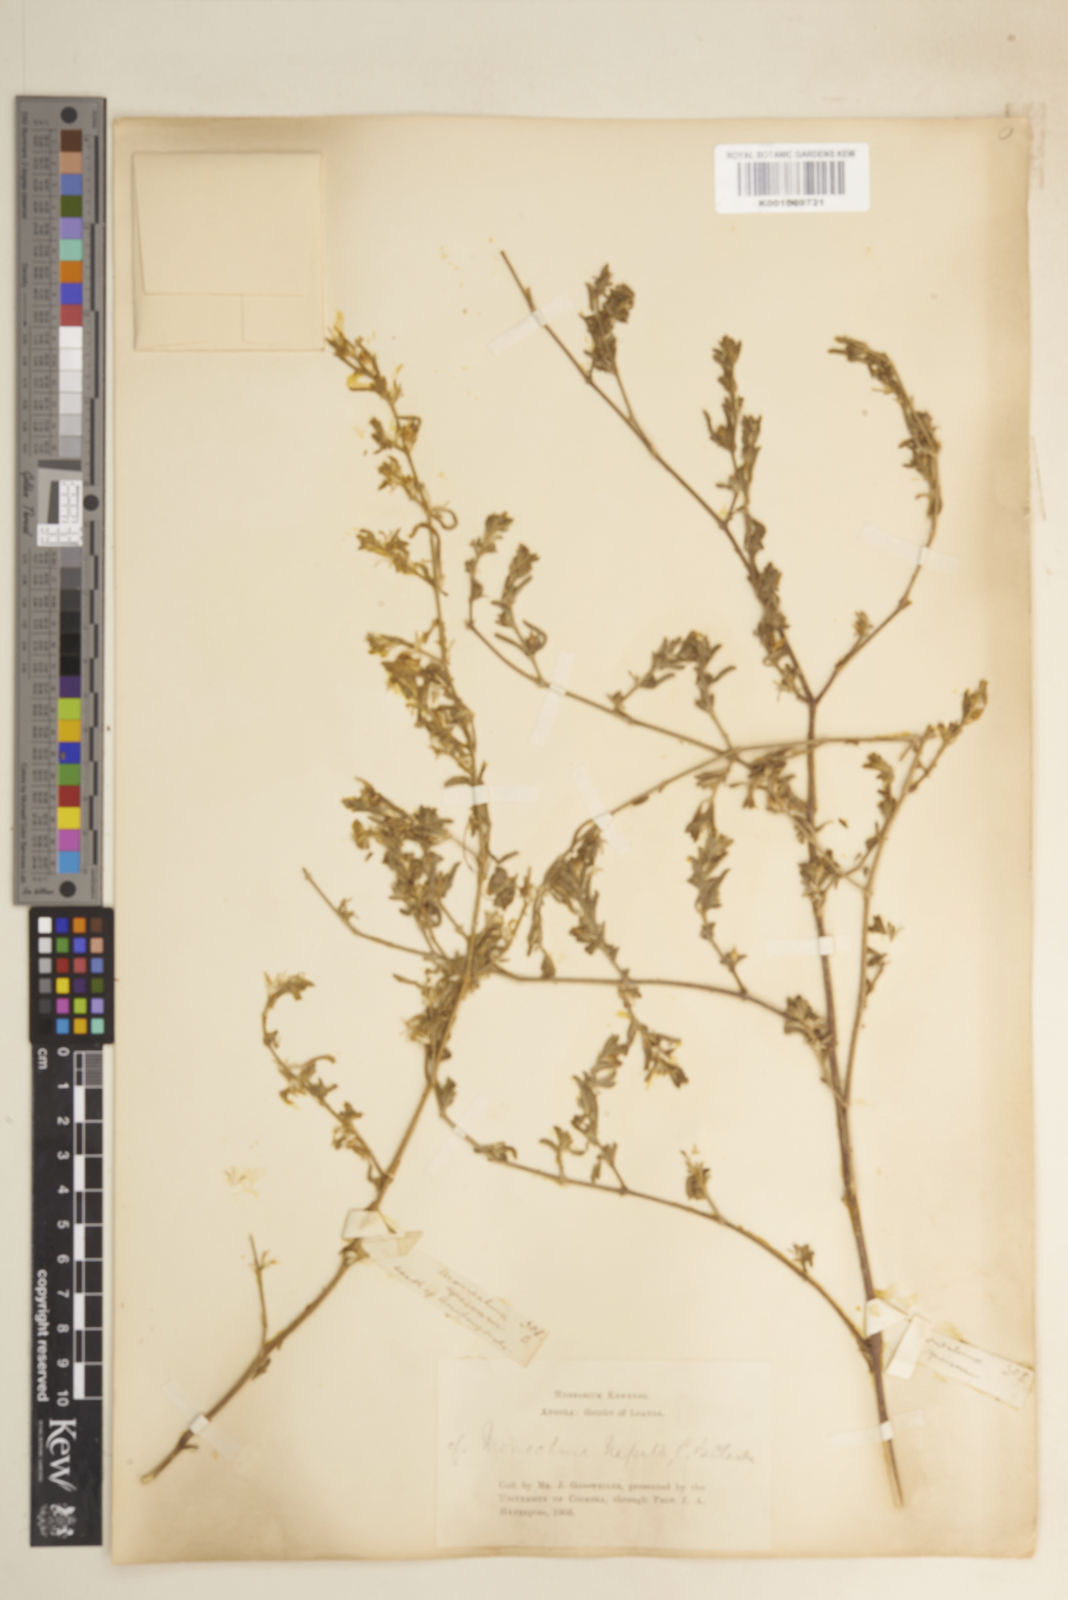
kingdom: Plantae
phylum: Tracheophyta
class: Magnoliopsida
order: Lamiales
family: Acanthaceae
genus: Pogonospermum
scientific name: Pogonospermum
